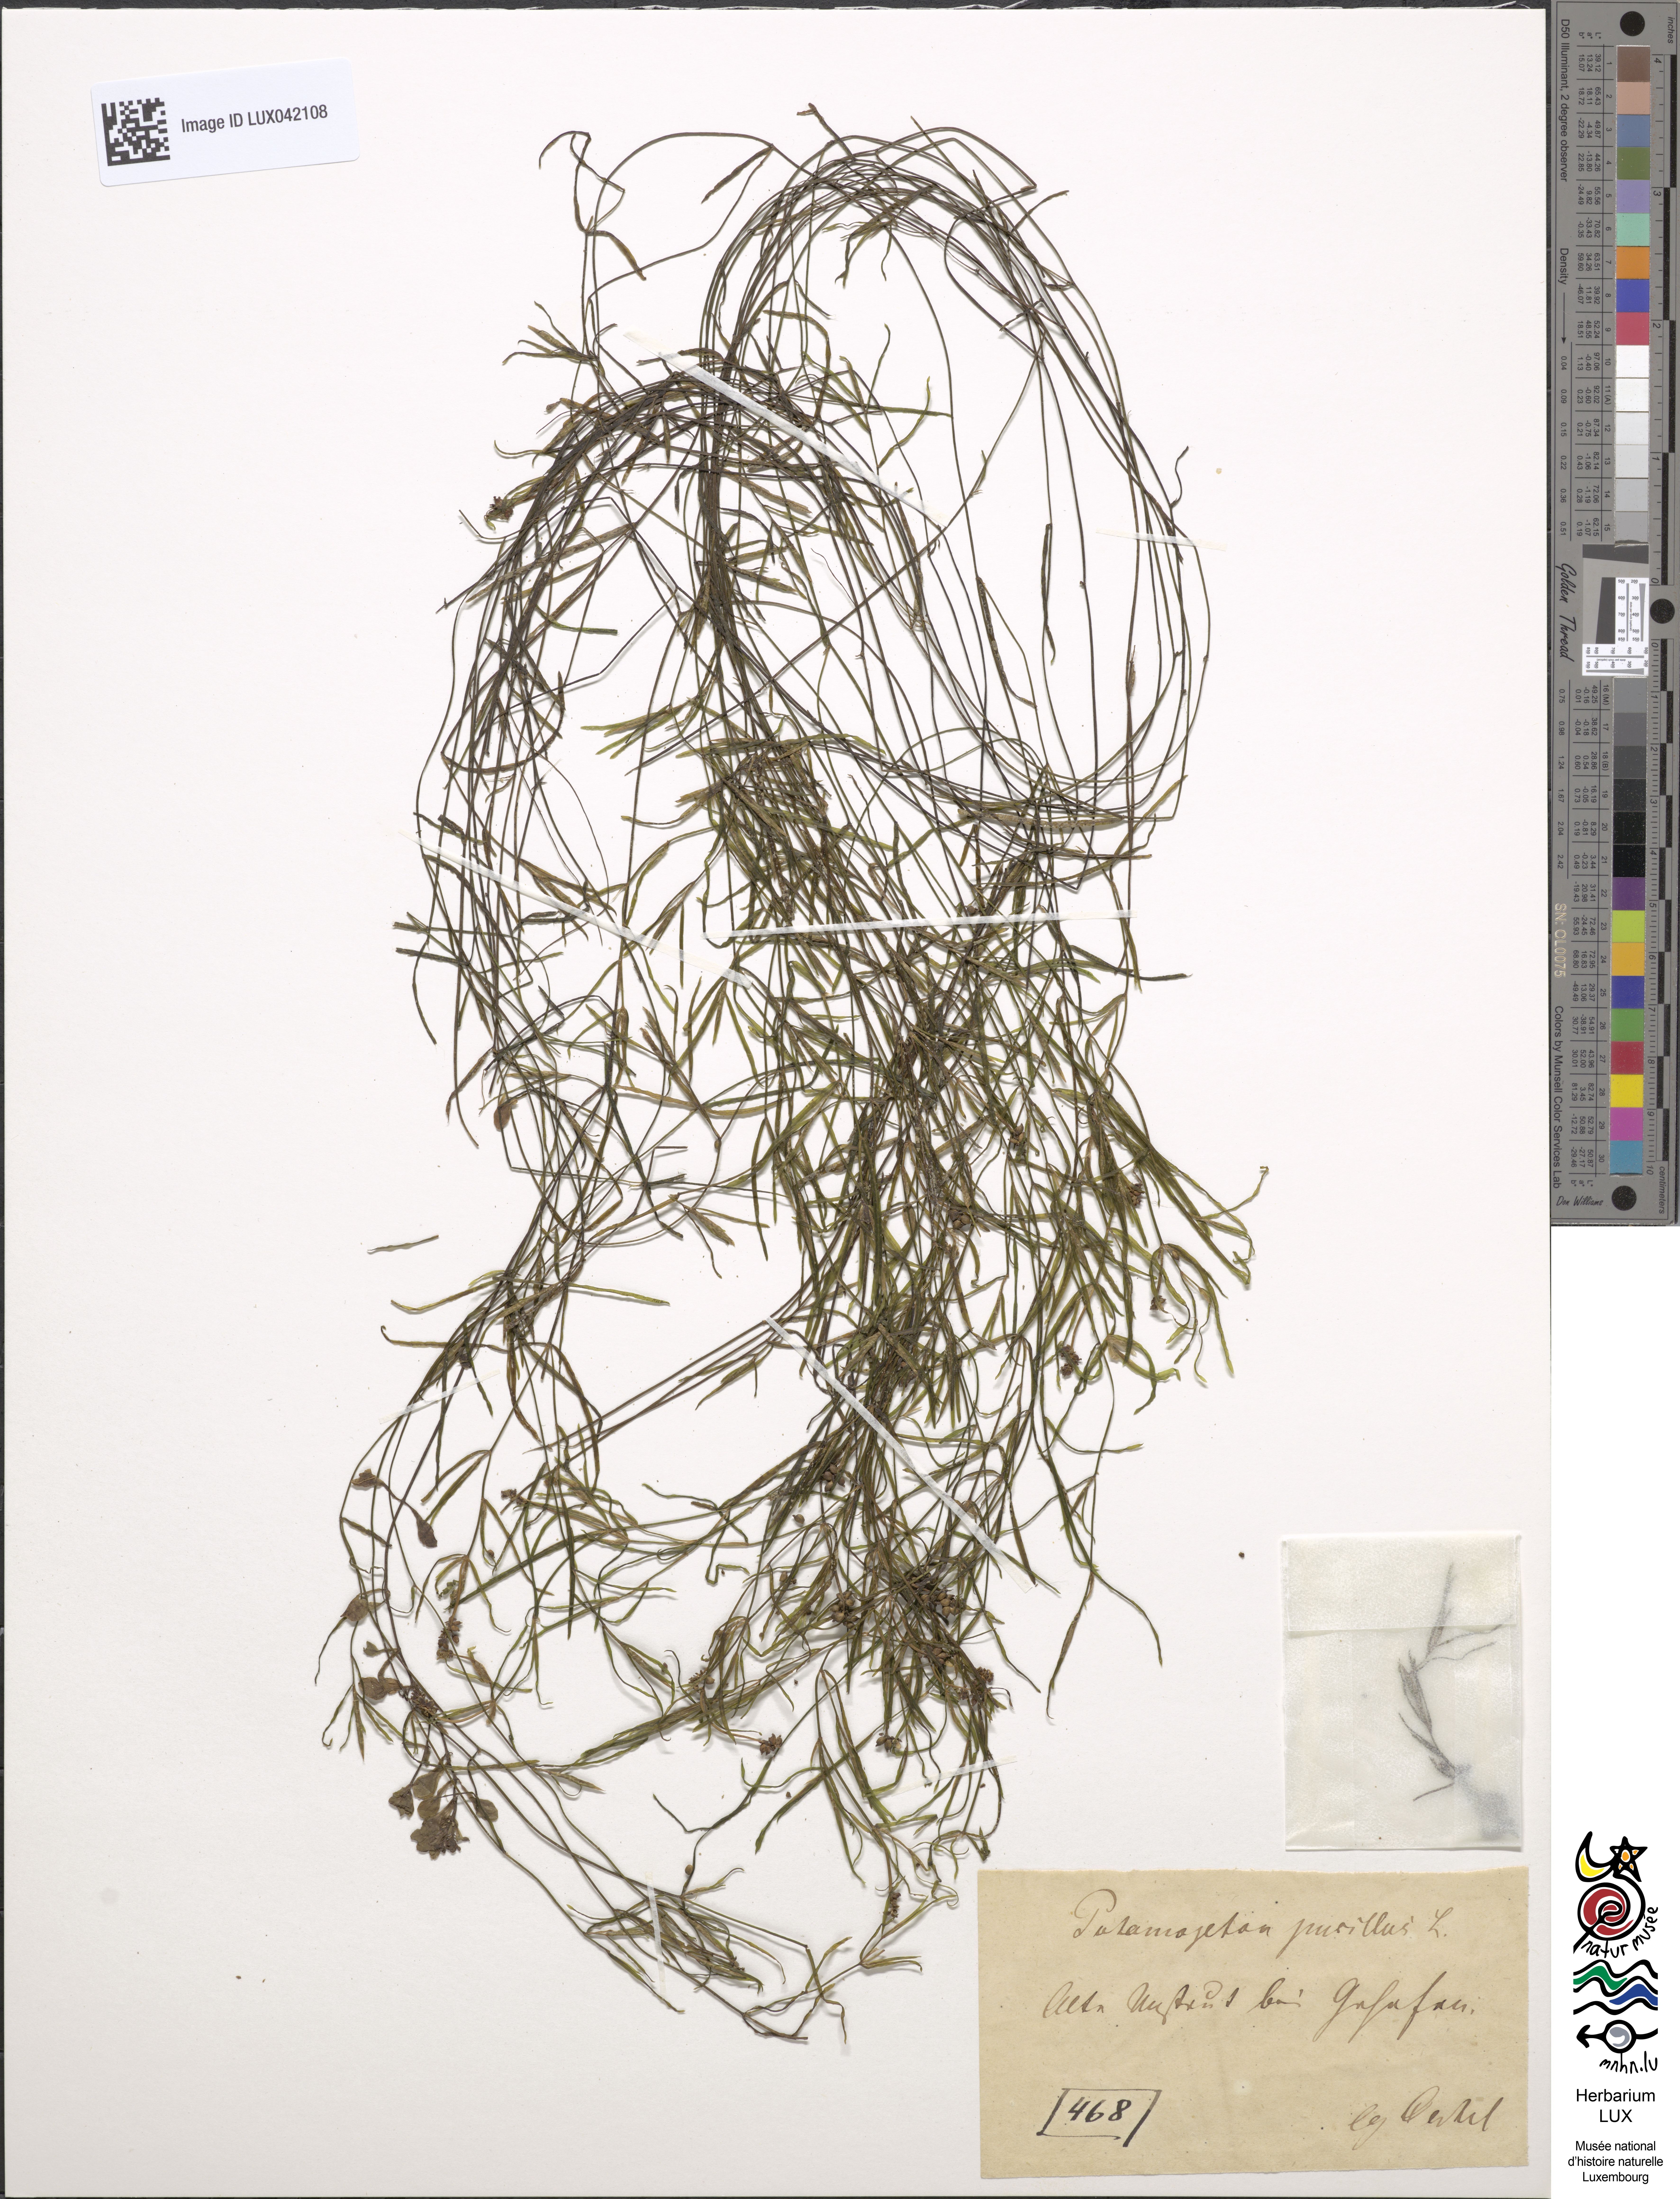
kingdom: Plantae
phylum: Tracheophyta
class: Liliopsida
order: Alismatales
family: Potamogetonaceae
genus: Potamogeton
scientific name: Potamogeton pusillus
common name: Lesser pondweed
